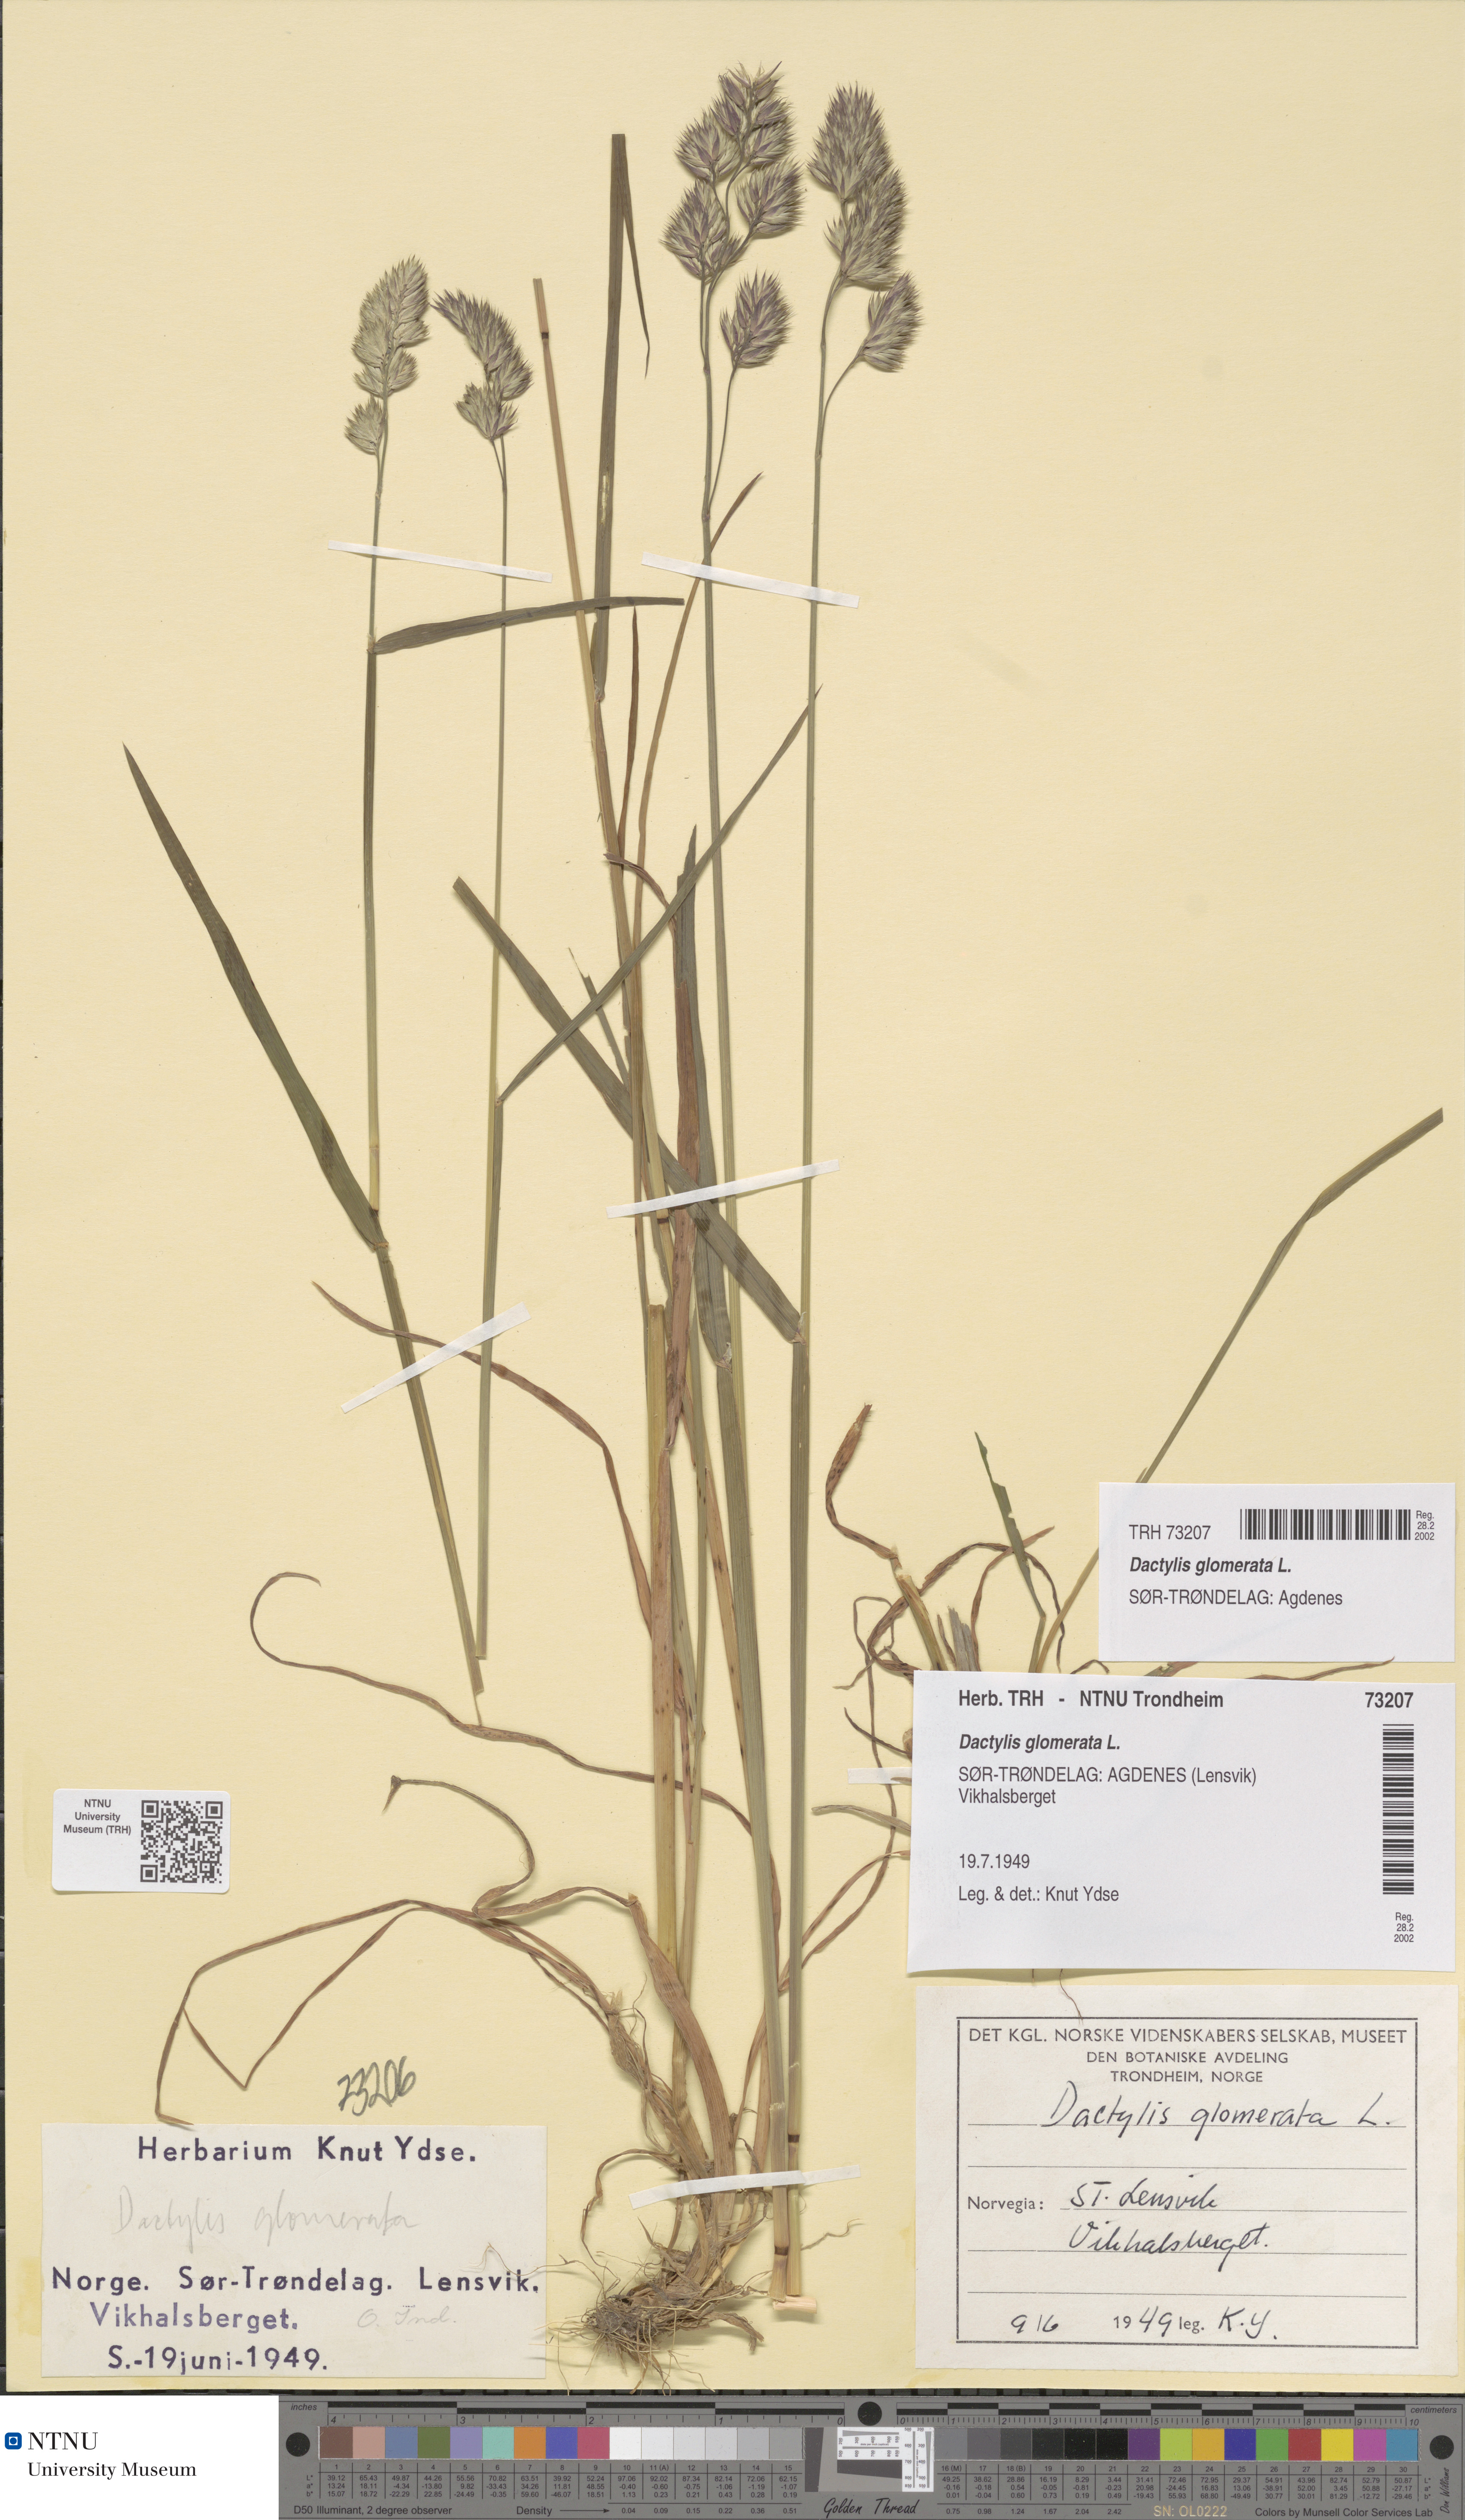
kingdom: Plantae
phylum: Tracheophyta
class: Liliopsida
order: Poales
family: Poaceae
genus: Dactylis
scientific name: Dactylis glomerata
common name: Orchardgrass
